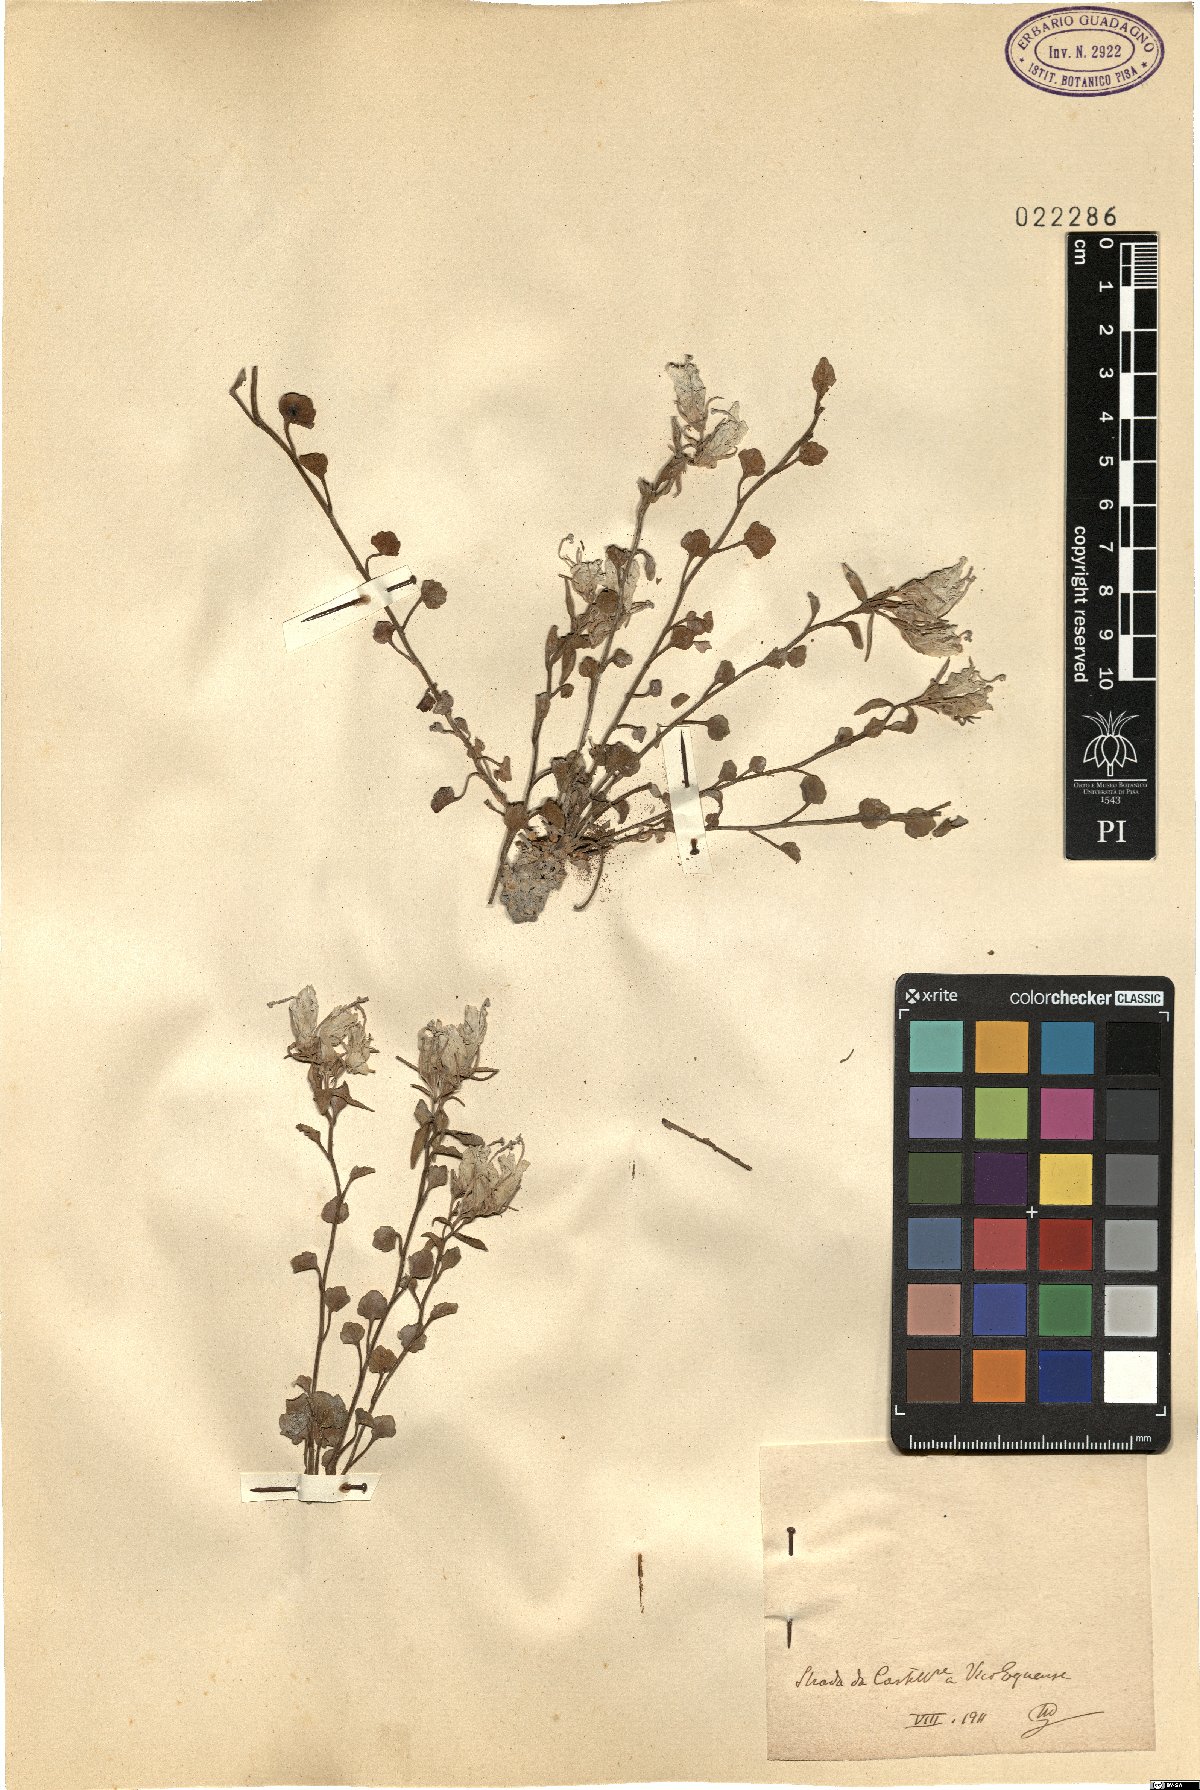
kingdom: Plantae
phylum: Tracheophyta
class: Magnoliopsida
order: Asterales
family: Campanulaceae
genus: Campanula
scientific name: Campanula
